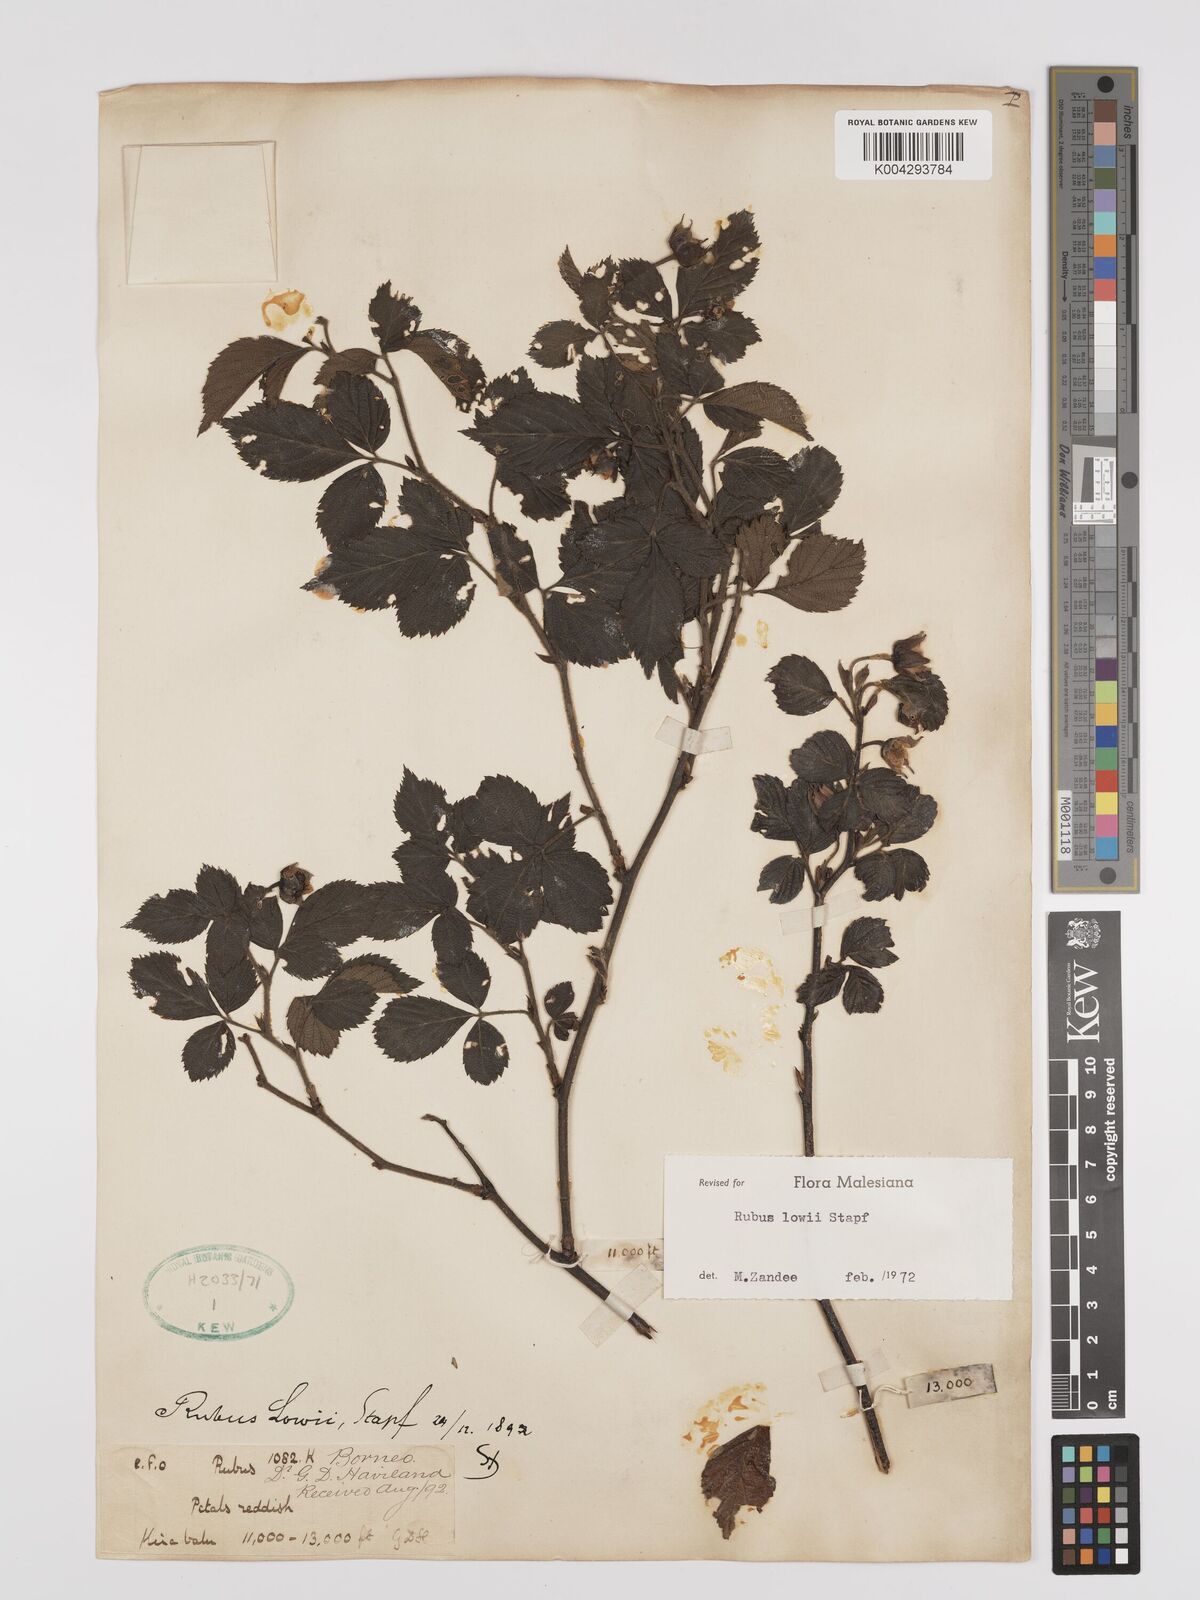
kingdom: Plantae
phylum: Tracheophyta
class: Magnoliopsida
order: Rosales
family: Rosaceae
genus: Rubus
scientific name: Rubus lowii
